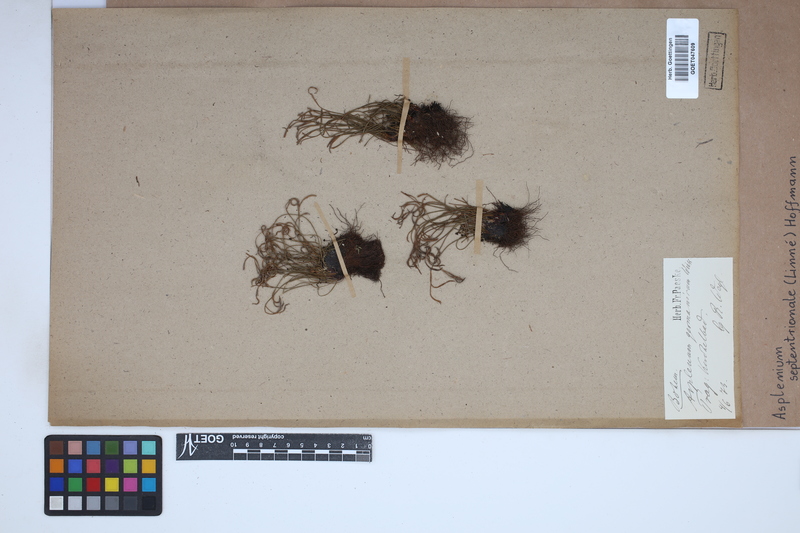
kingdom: Plantae
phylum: Tracheophyta
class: Polypodiopsida
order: Polypodiales
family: Aspleniaceae
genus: Asplenium
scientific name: Asplenium septentrionale
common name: Forked spleenwort
